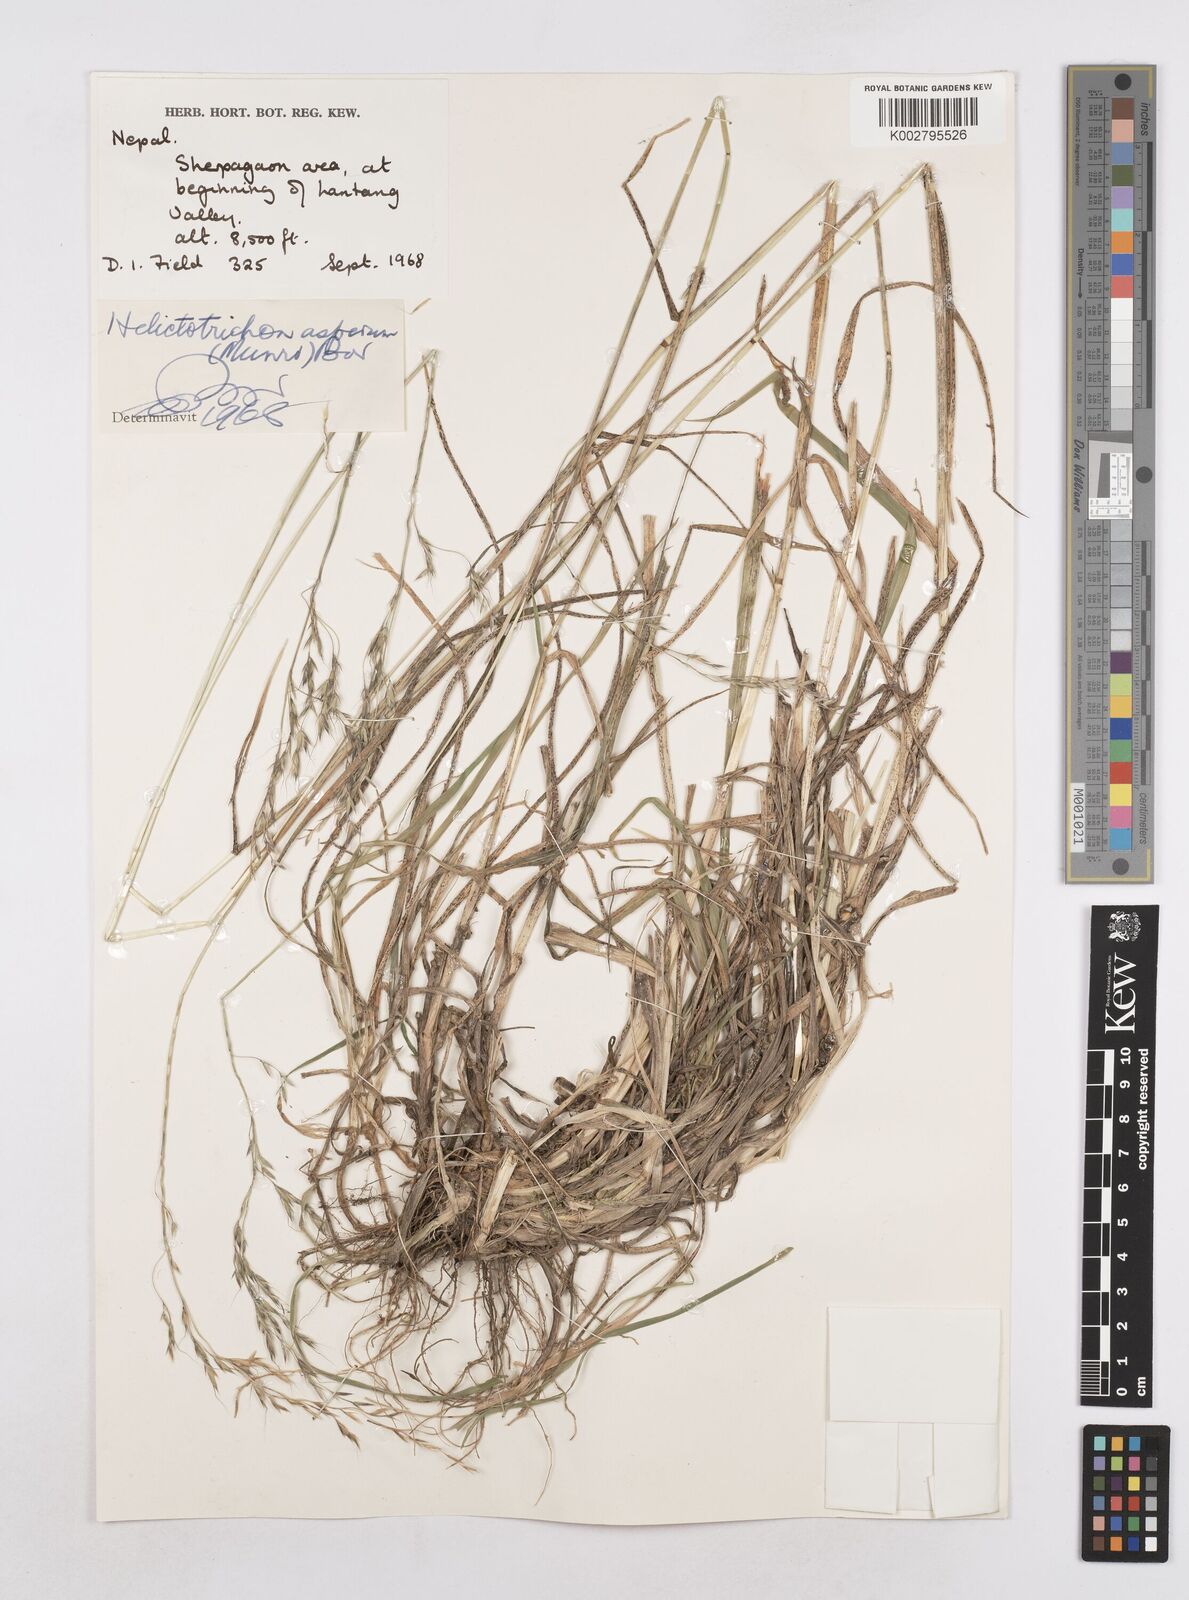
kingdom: Plantae
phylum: Tracheophyta
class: Liliopsida
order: Poales
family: Poaceae
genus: Trisetopsis
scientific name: Trisetopsis junghuhnii
